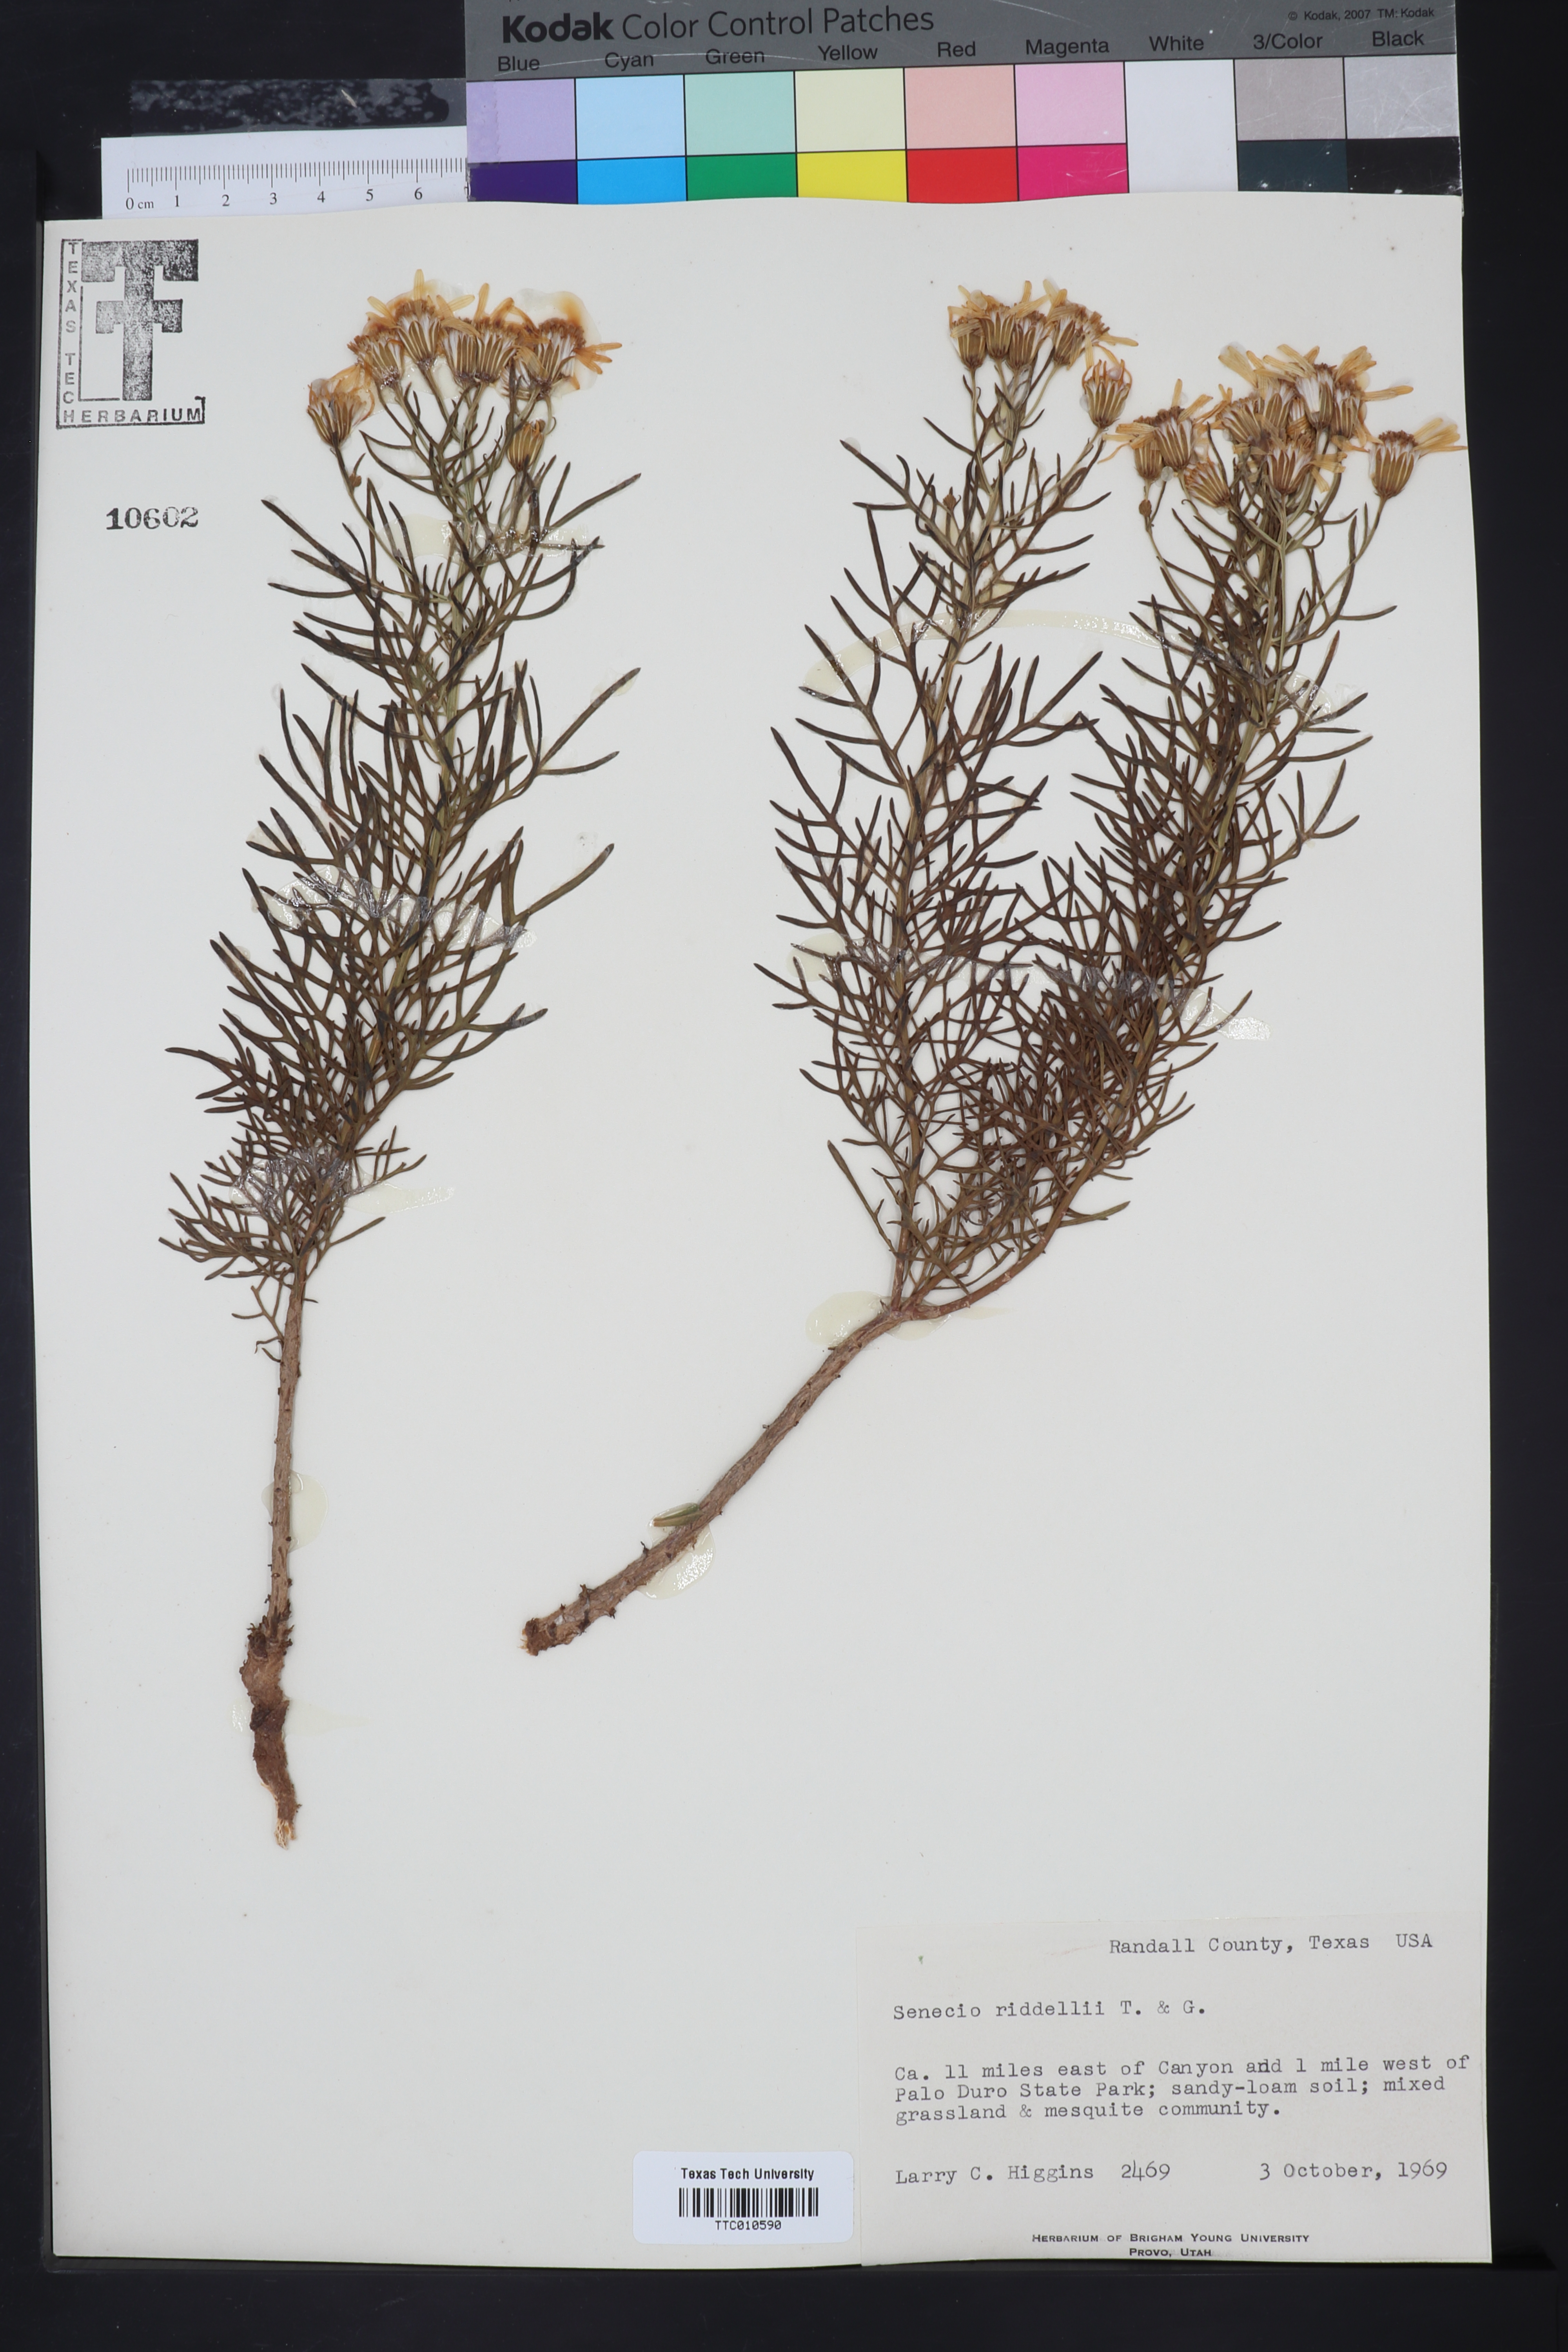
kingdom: Plantae
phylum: Tracheophyta
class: Magnoliopsida
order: Asterales
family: Asteraceae
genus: Senecio
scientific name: Senecio riddellii
